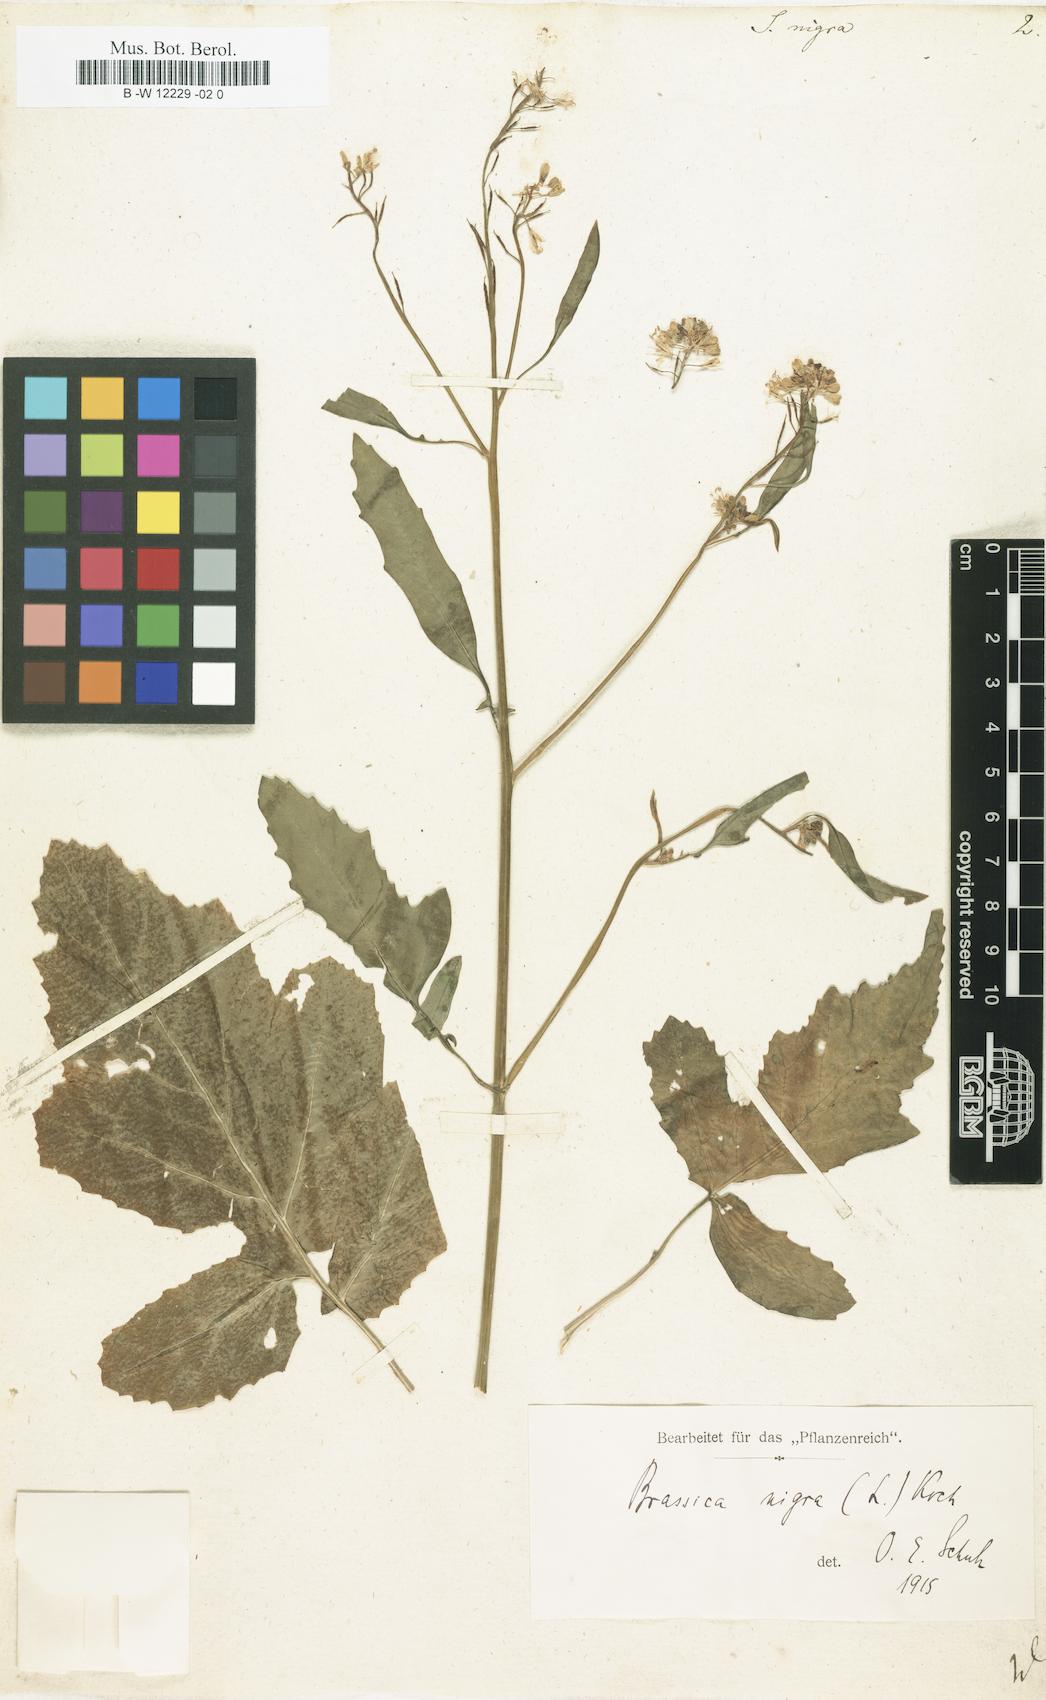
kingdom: Plantae
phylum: Tracheophyta
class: Magnoliopsida
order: Brassicales
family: Brassicaceae
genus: Sinapis
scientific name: Sinapis nigra
